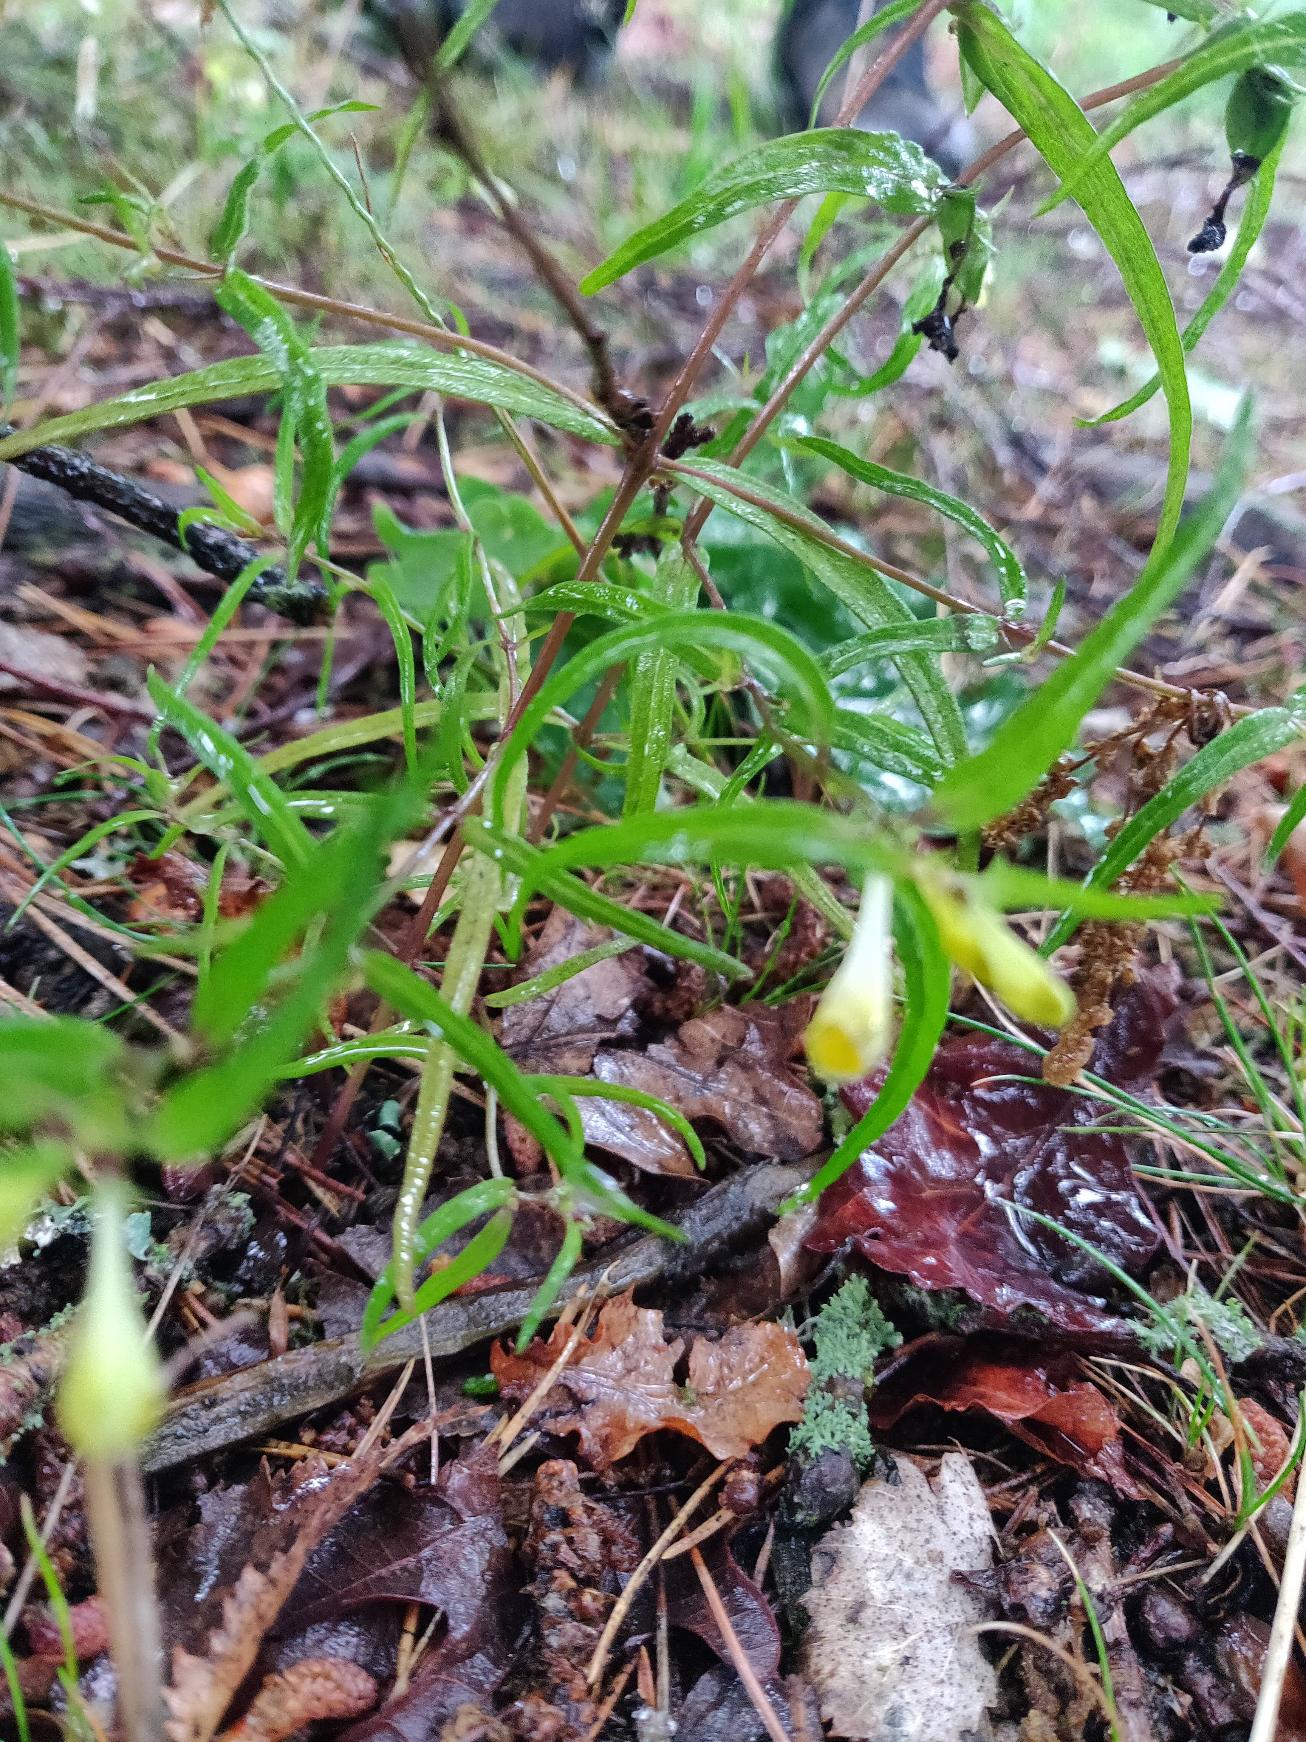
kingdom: Plantae
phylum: Tracheophyta
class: Magnoliopsida
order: Lamiales
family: Orobanchaceae
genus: Melampyrum
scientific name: Melampyrum pratense
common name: Almindelig kohvede
